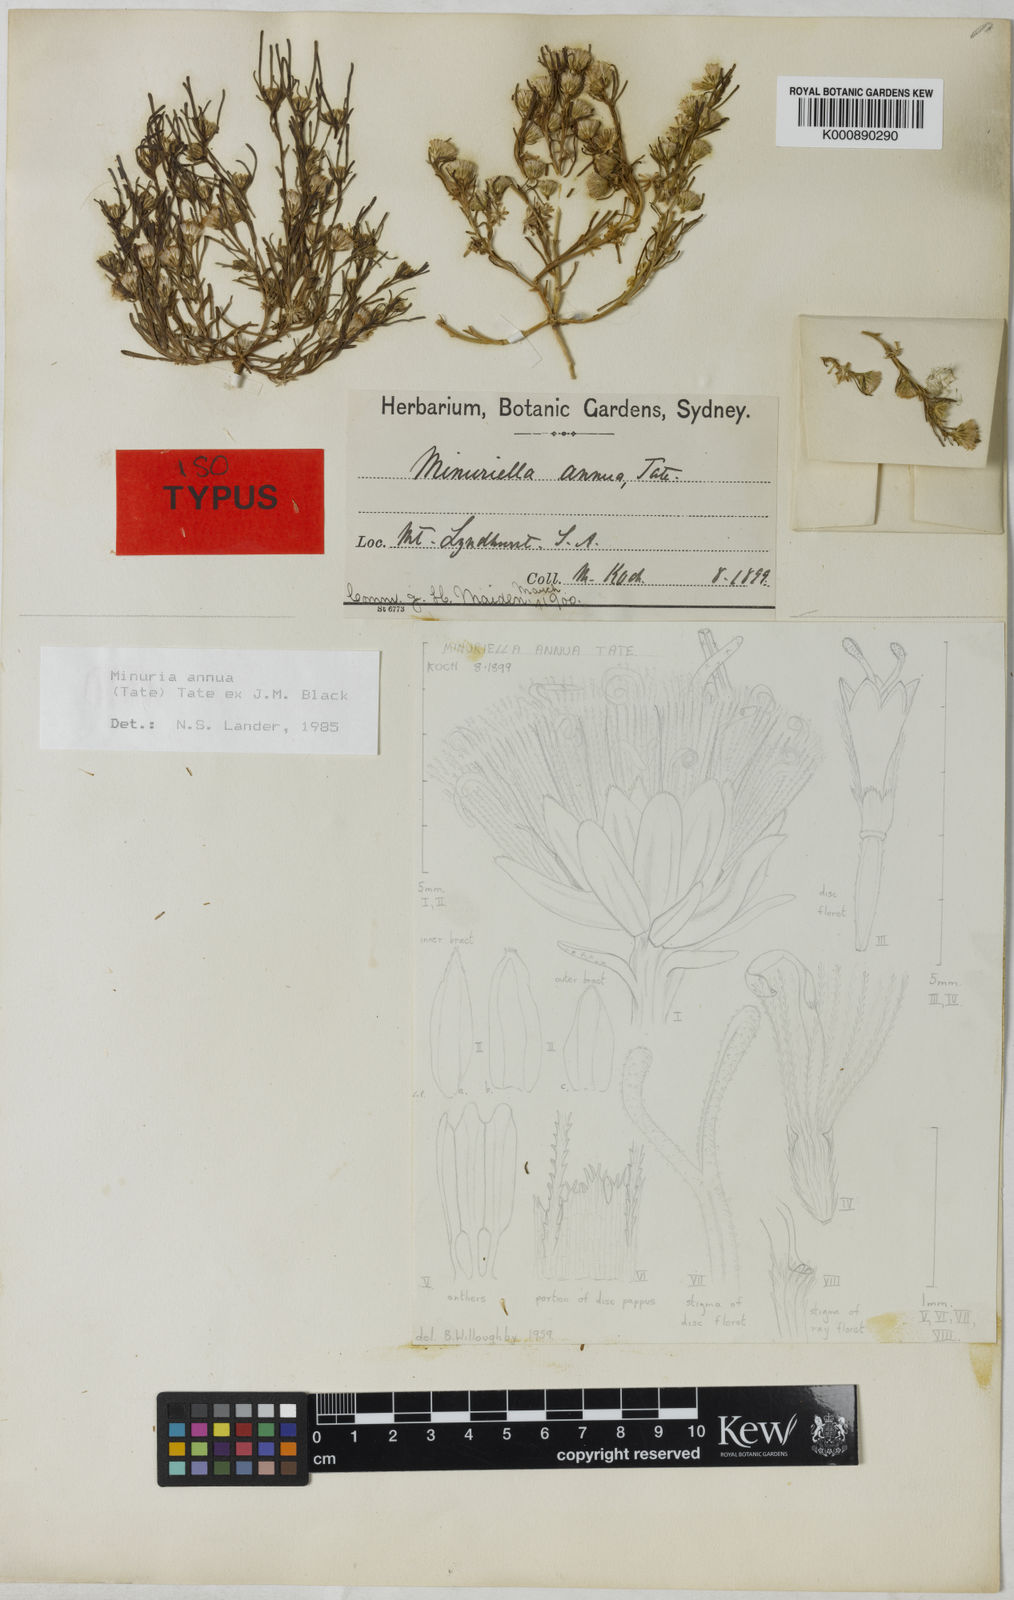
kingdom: Plantae
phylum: Tracheophyta
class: Magnoliopsida
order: Asterales
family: Asteraceae
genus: Minuria
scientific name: Minuria annua
